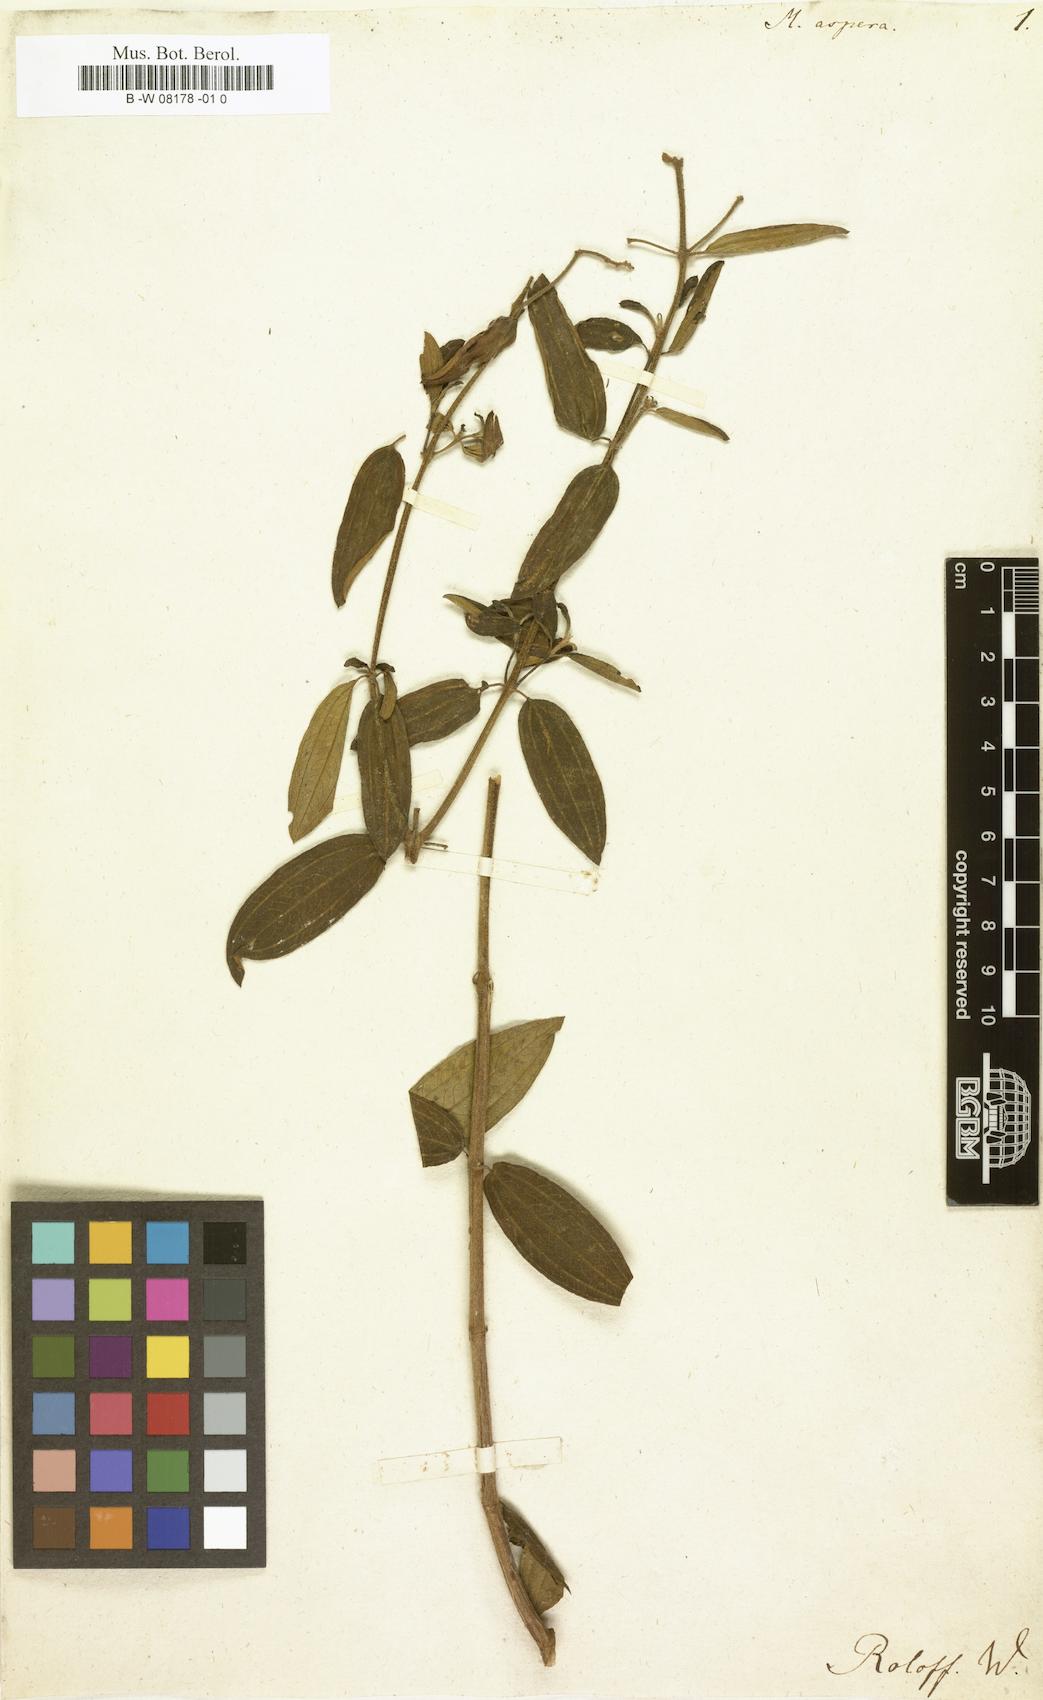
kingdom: Plantae
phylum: Tracheophyta
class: Magnoliopsida
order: Myrtales
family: Melastomataceae
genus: Melastoma
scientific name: Melastoma asperum
